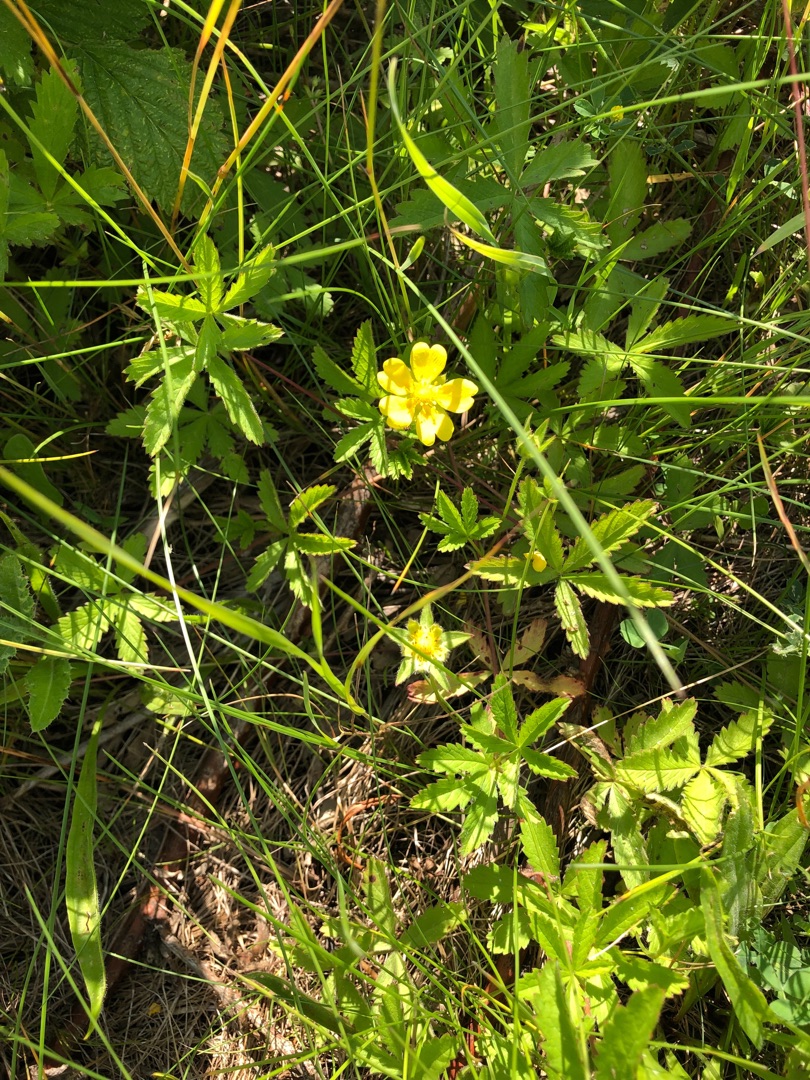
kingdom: Plantae
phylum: Tracheophyta
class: Magnoliopsida
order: Rosales
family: Rosaceae
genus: Potentilla
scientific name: Potentilla reptans
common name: Krybende potentil
